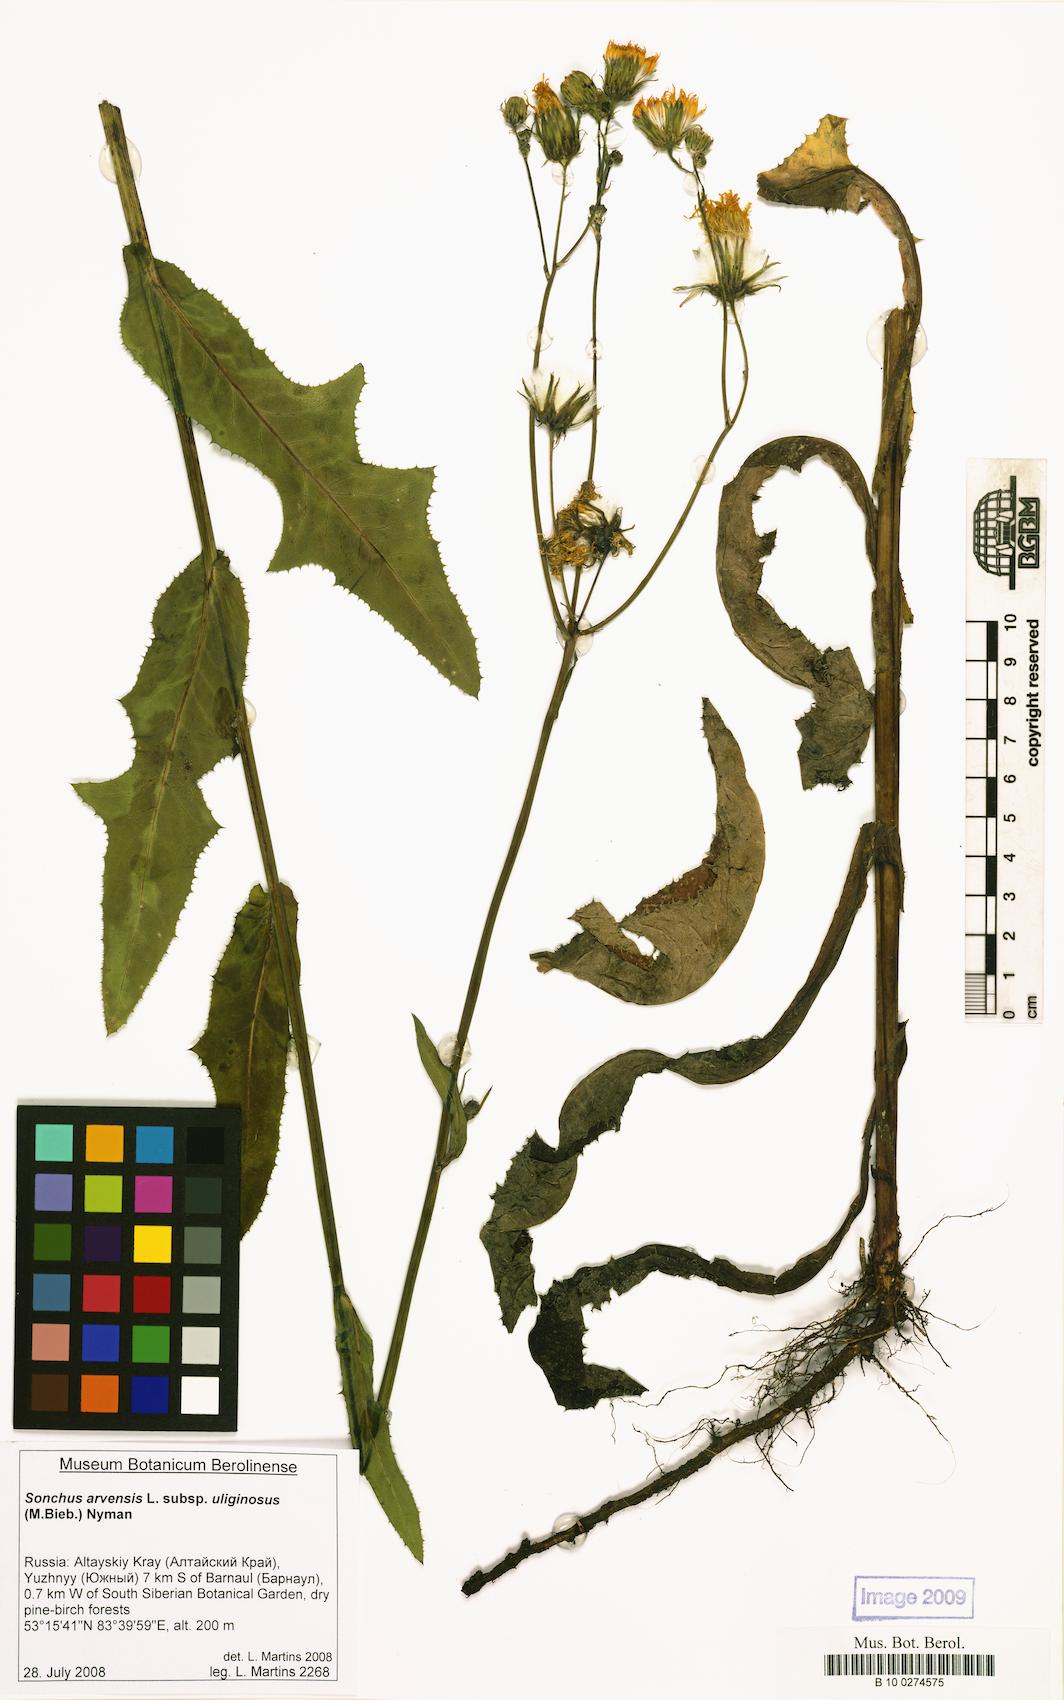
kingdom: Plantae
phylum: Tracheophyta
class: Magnoliopsida
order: Asterales
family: Asteraceae
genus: Sonchus
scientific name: Sonchus arvensis
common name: Perennial sow-thistle
